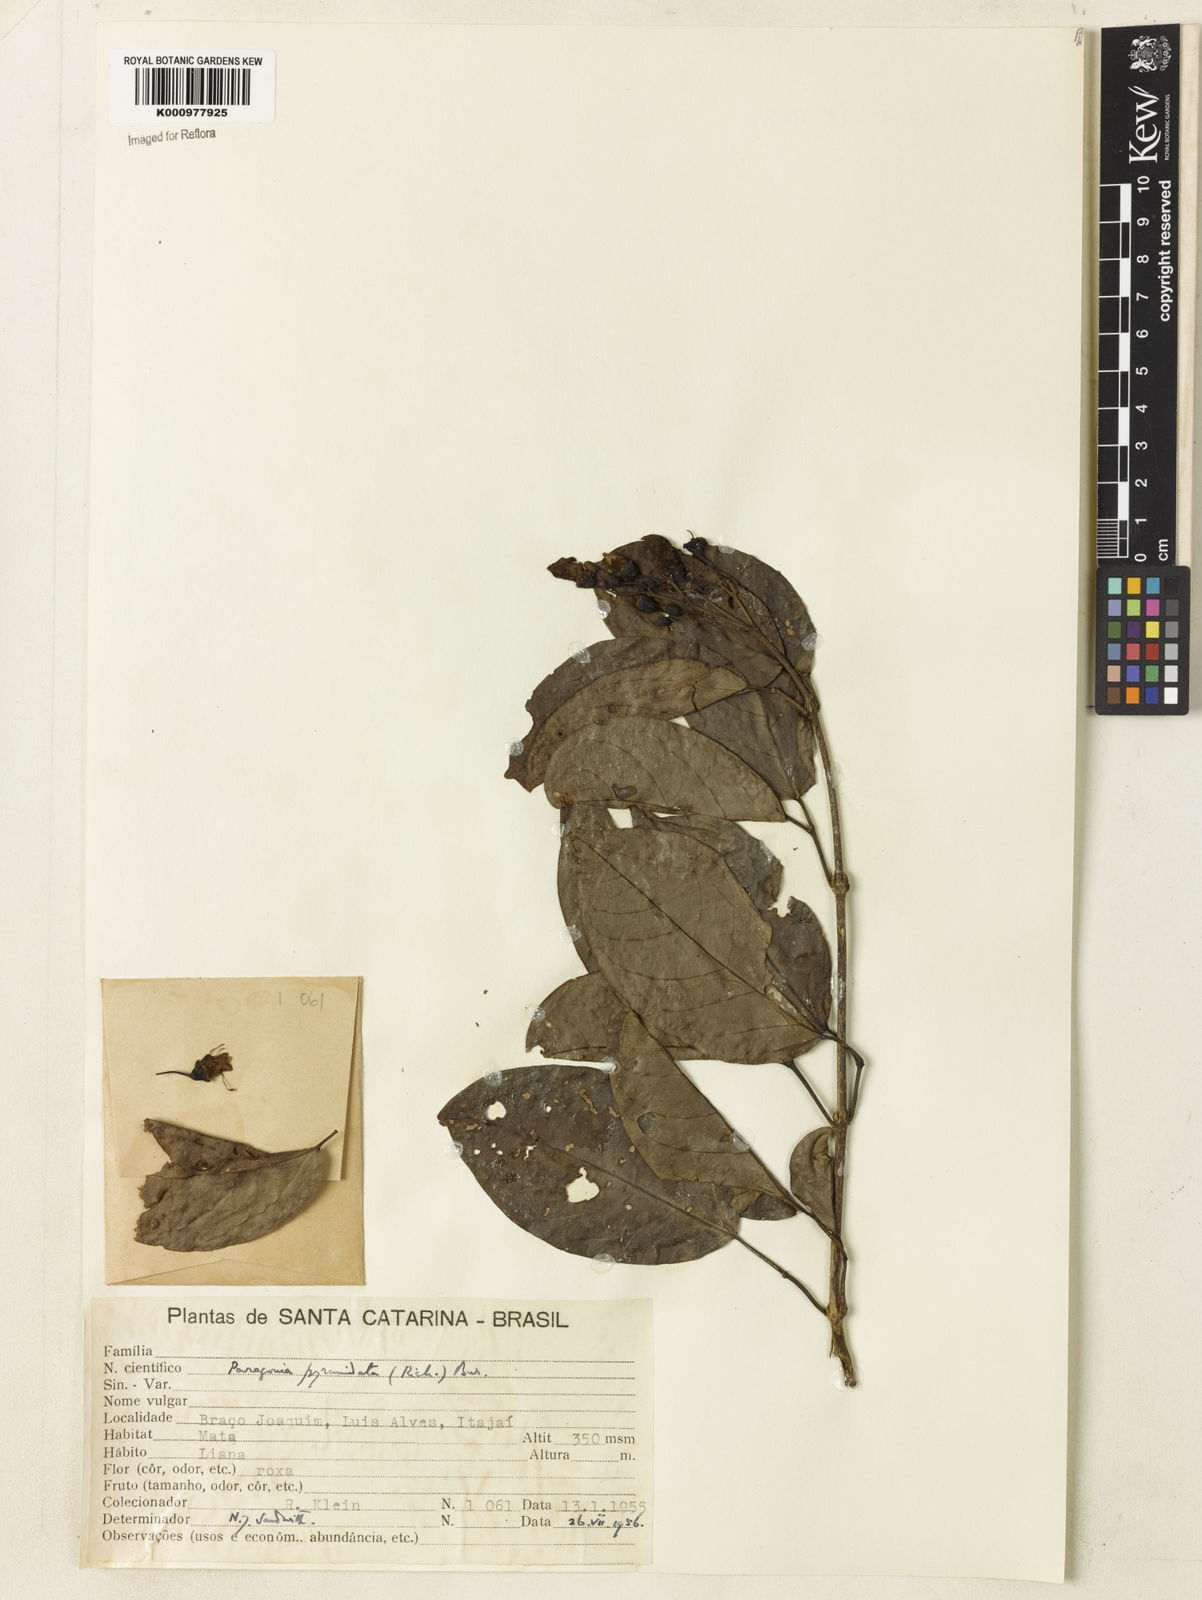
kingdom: Plantae
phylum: Tracheophyta
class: Magnoliopsida
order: Lamiales
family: Bignoniaceae
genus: Tanaecium
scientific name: Tanaecium pyramidatum
